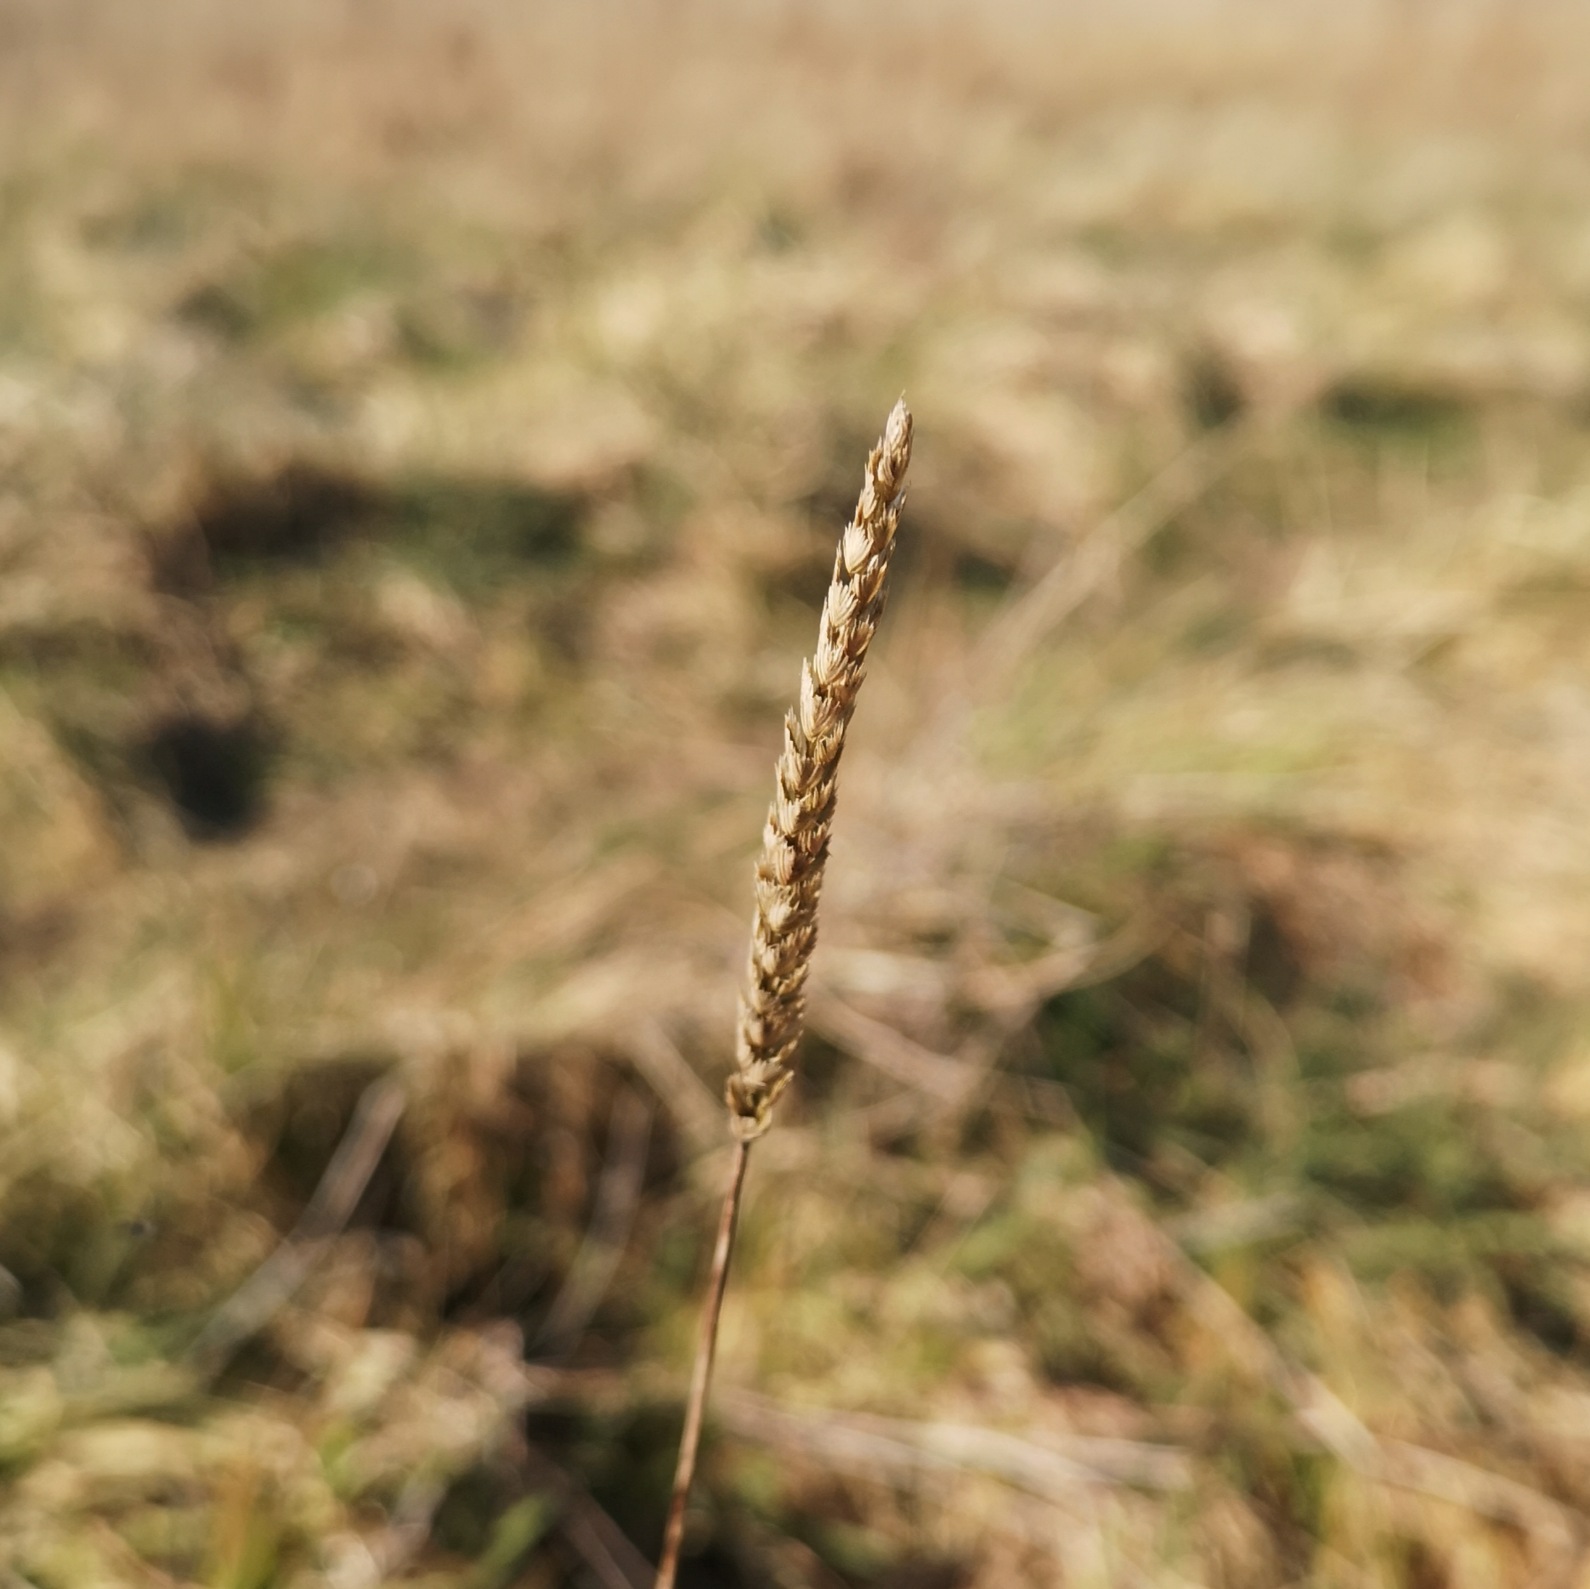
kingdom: Plantae
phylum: Tracheophyta
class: Liliopsida
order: Poales
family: Poaceae
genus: Cynosurus
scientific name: Cynosurus cristatus
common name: Kamgræs
